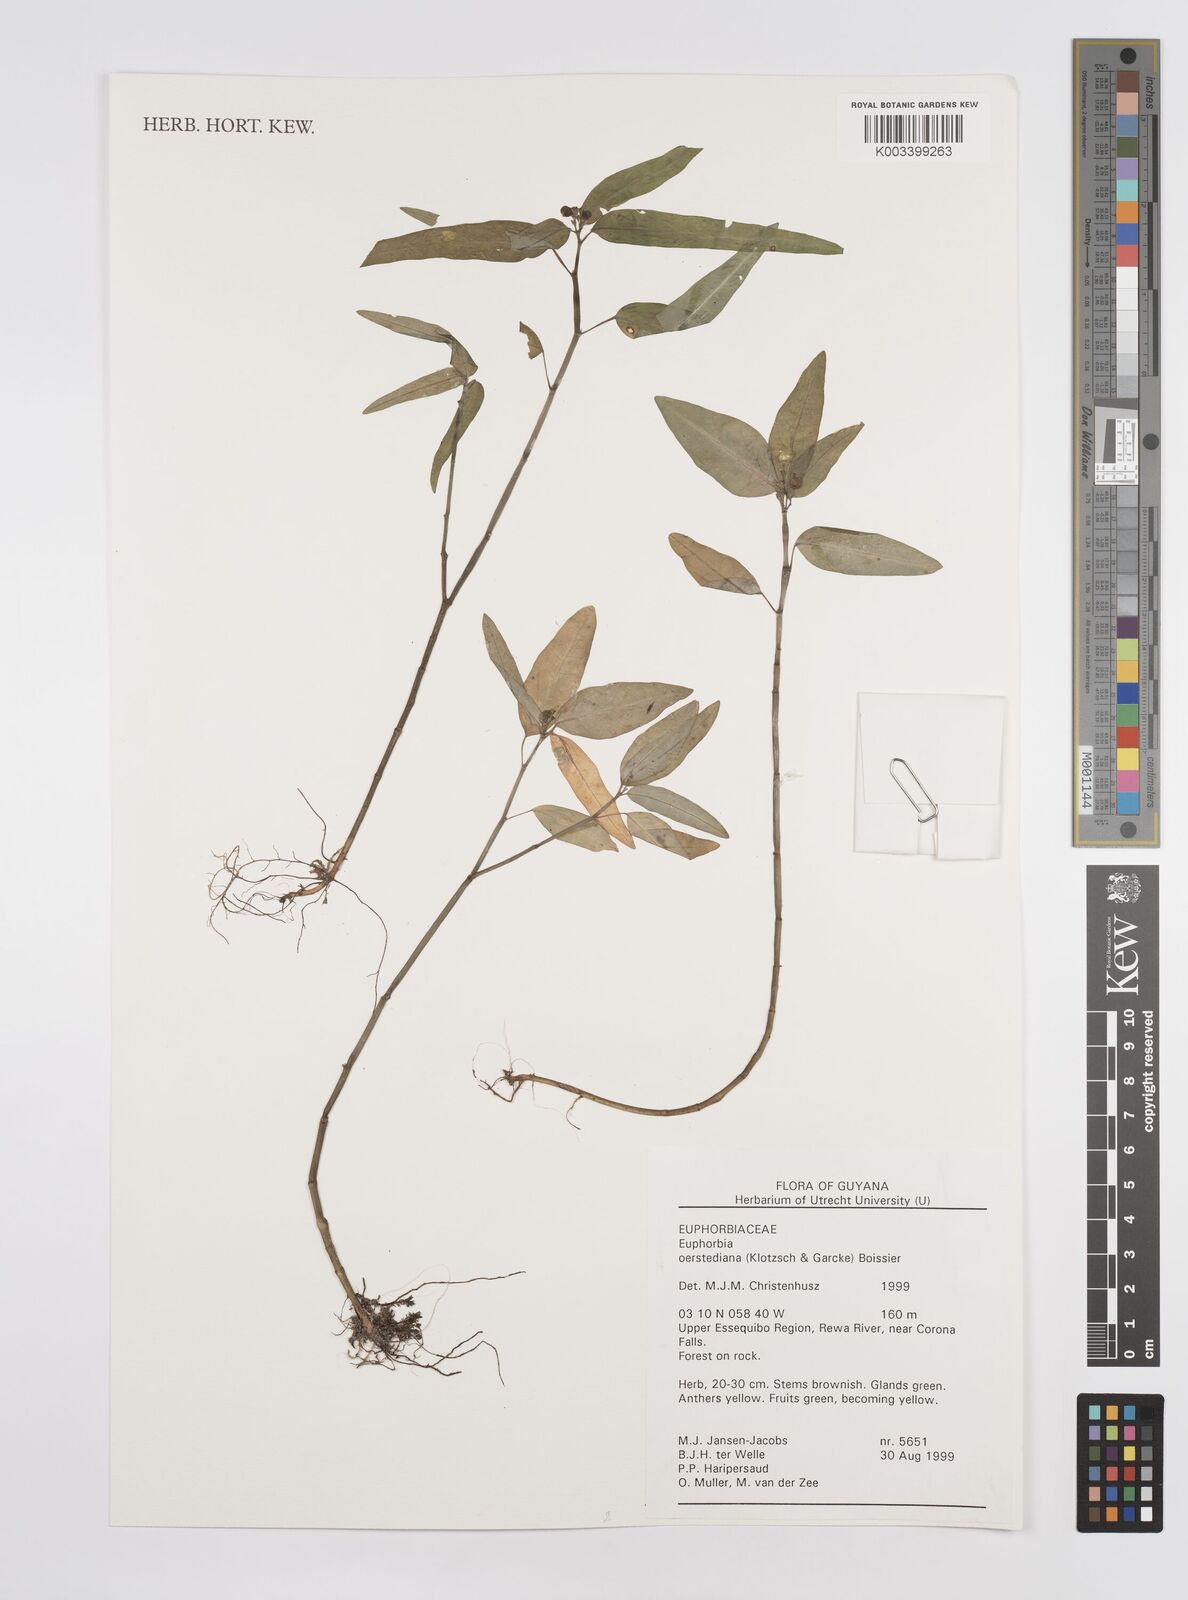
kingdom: Plantae
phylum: Tracheophyta
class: Magnoliopsida
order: Malpighiales
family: Euphorbiaceae
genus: Euphorbia
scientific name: Euphorbia oerstediana
